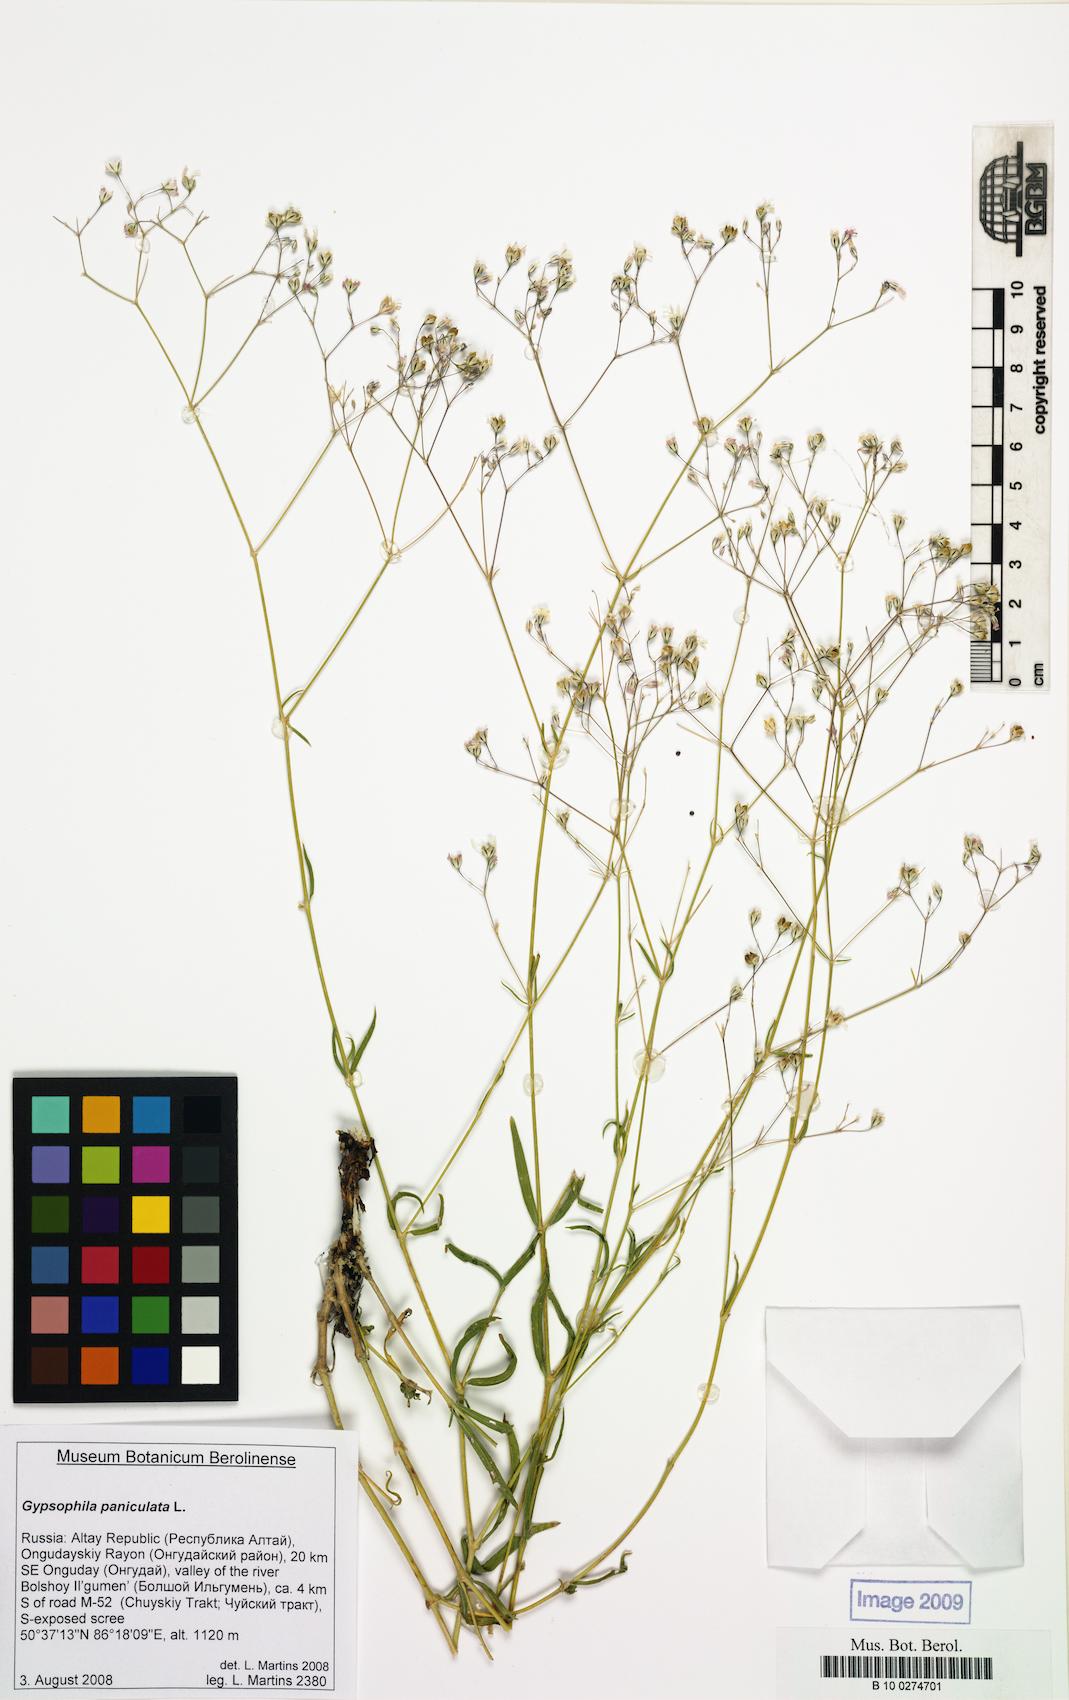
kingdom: Plantae
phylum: Tracheophyta
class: Magnoliopsida
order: Caryophyllales
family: Caryophyllaceae
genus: Gypsophila
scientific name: Gypsophila paniculata
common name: Baby's-breath
